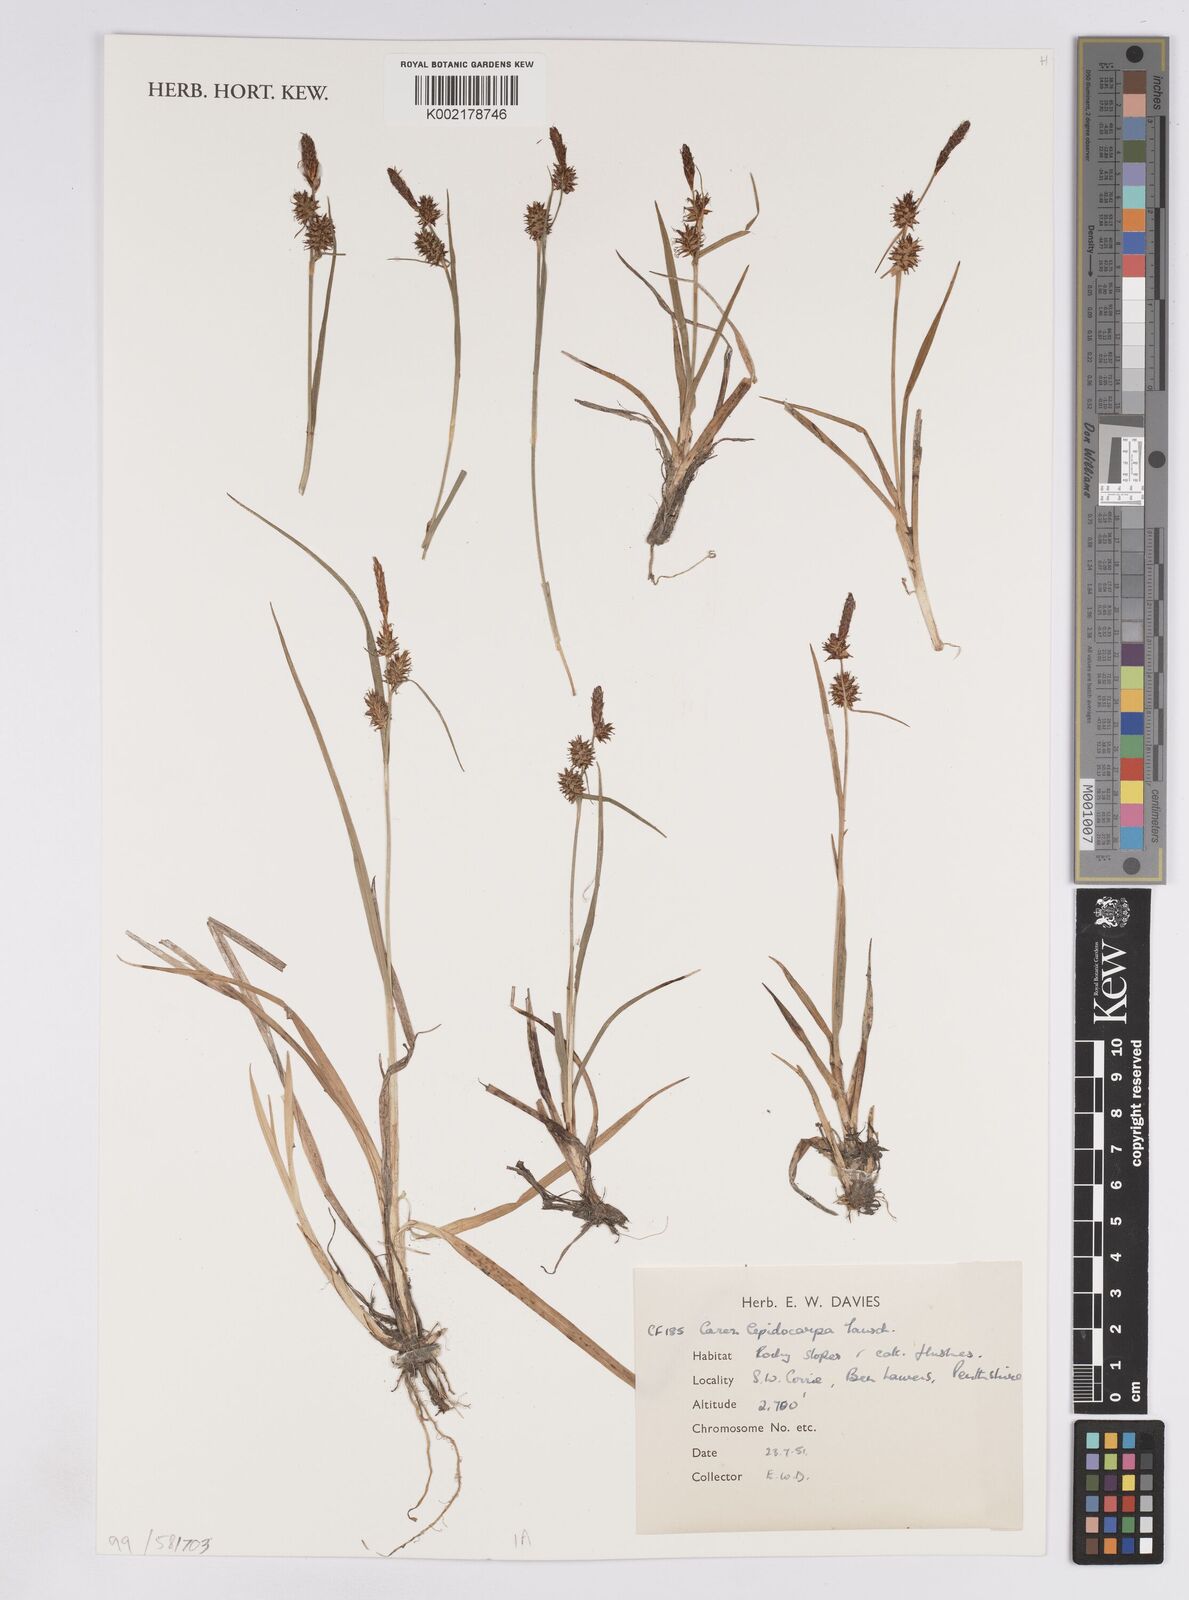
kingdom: Plantae
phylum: Tracheophyta
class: Liliopsida
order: Poales
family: Cyperaceae
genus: Carex
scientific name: Carex lepidocarpa
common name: Long-stalked yellow-sedge
